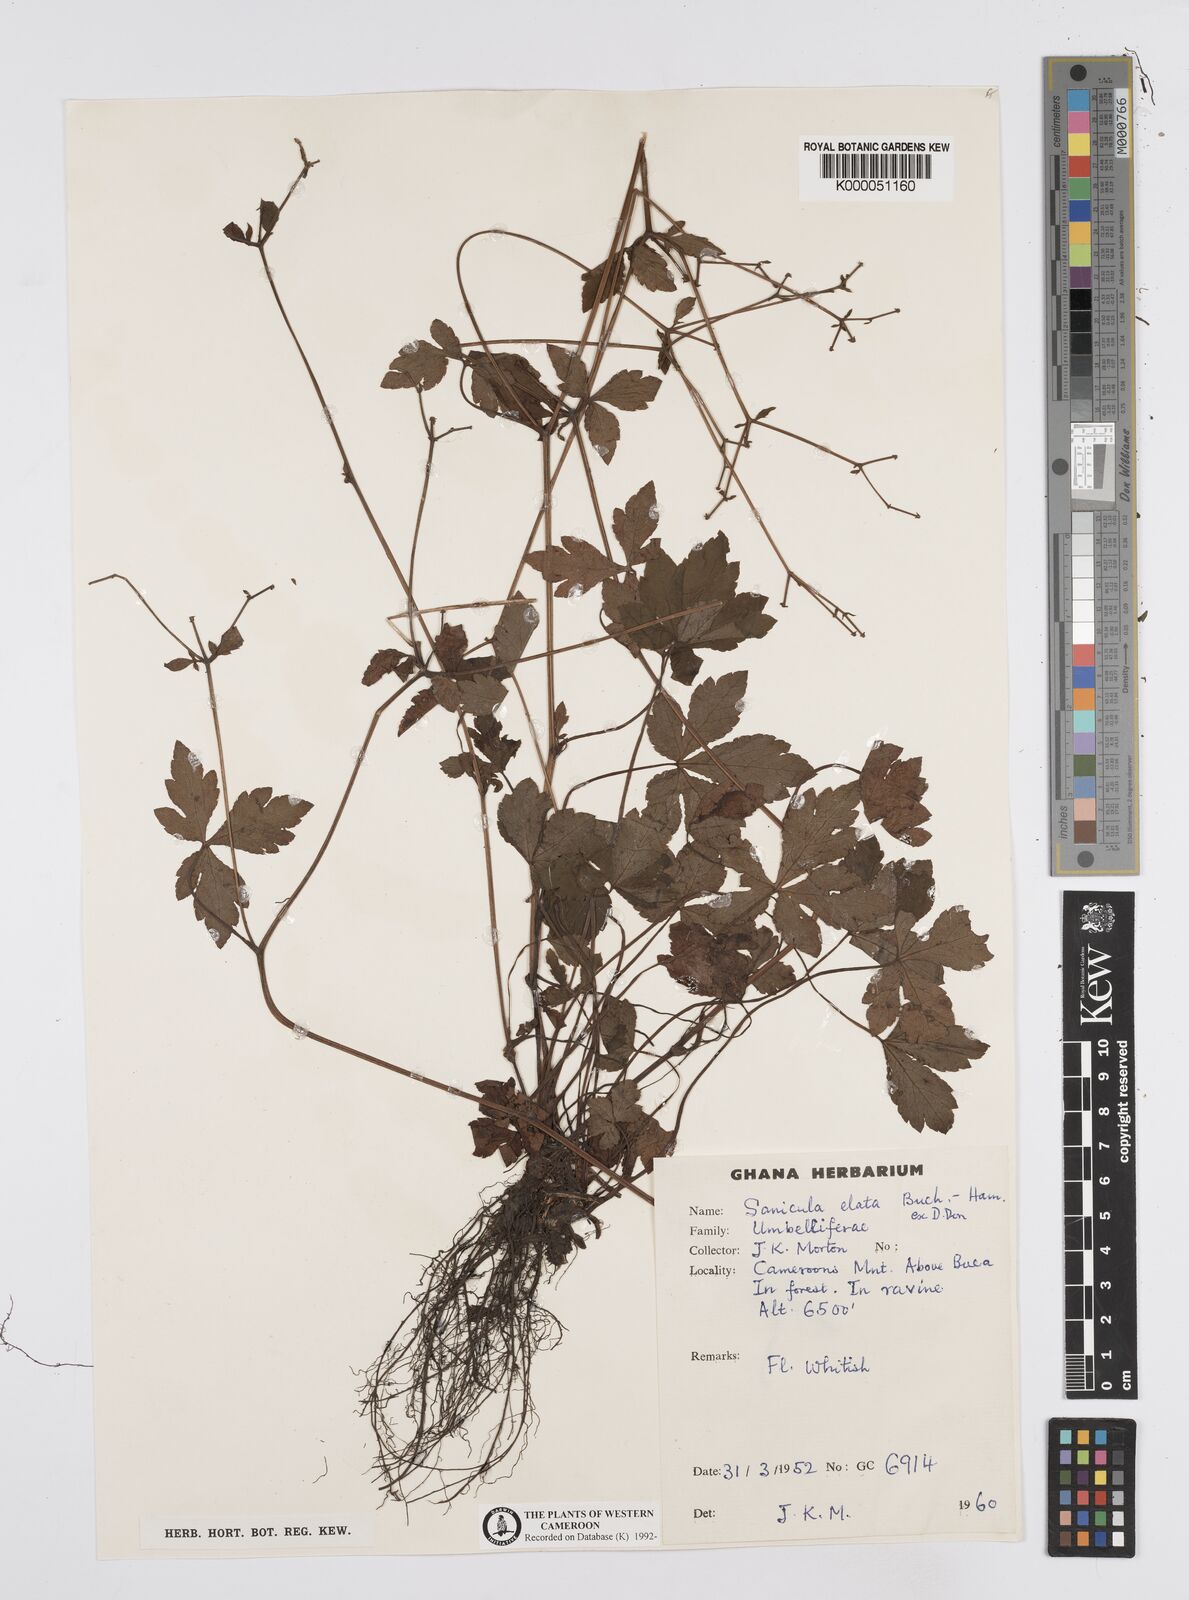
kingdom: Plantae
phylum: Tracheophyta
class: Magnoliopsida
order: Apiales
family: Apiaceae
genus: Sanicula
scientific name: Sanicula
